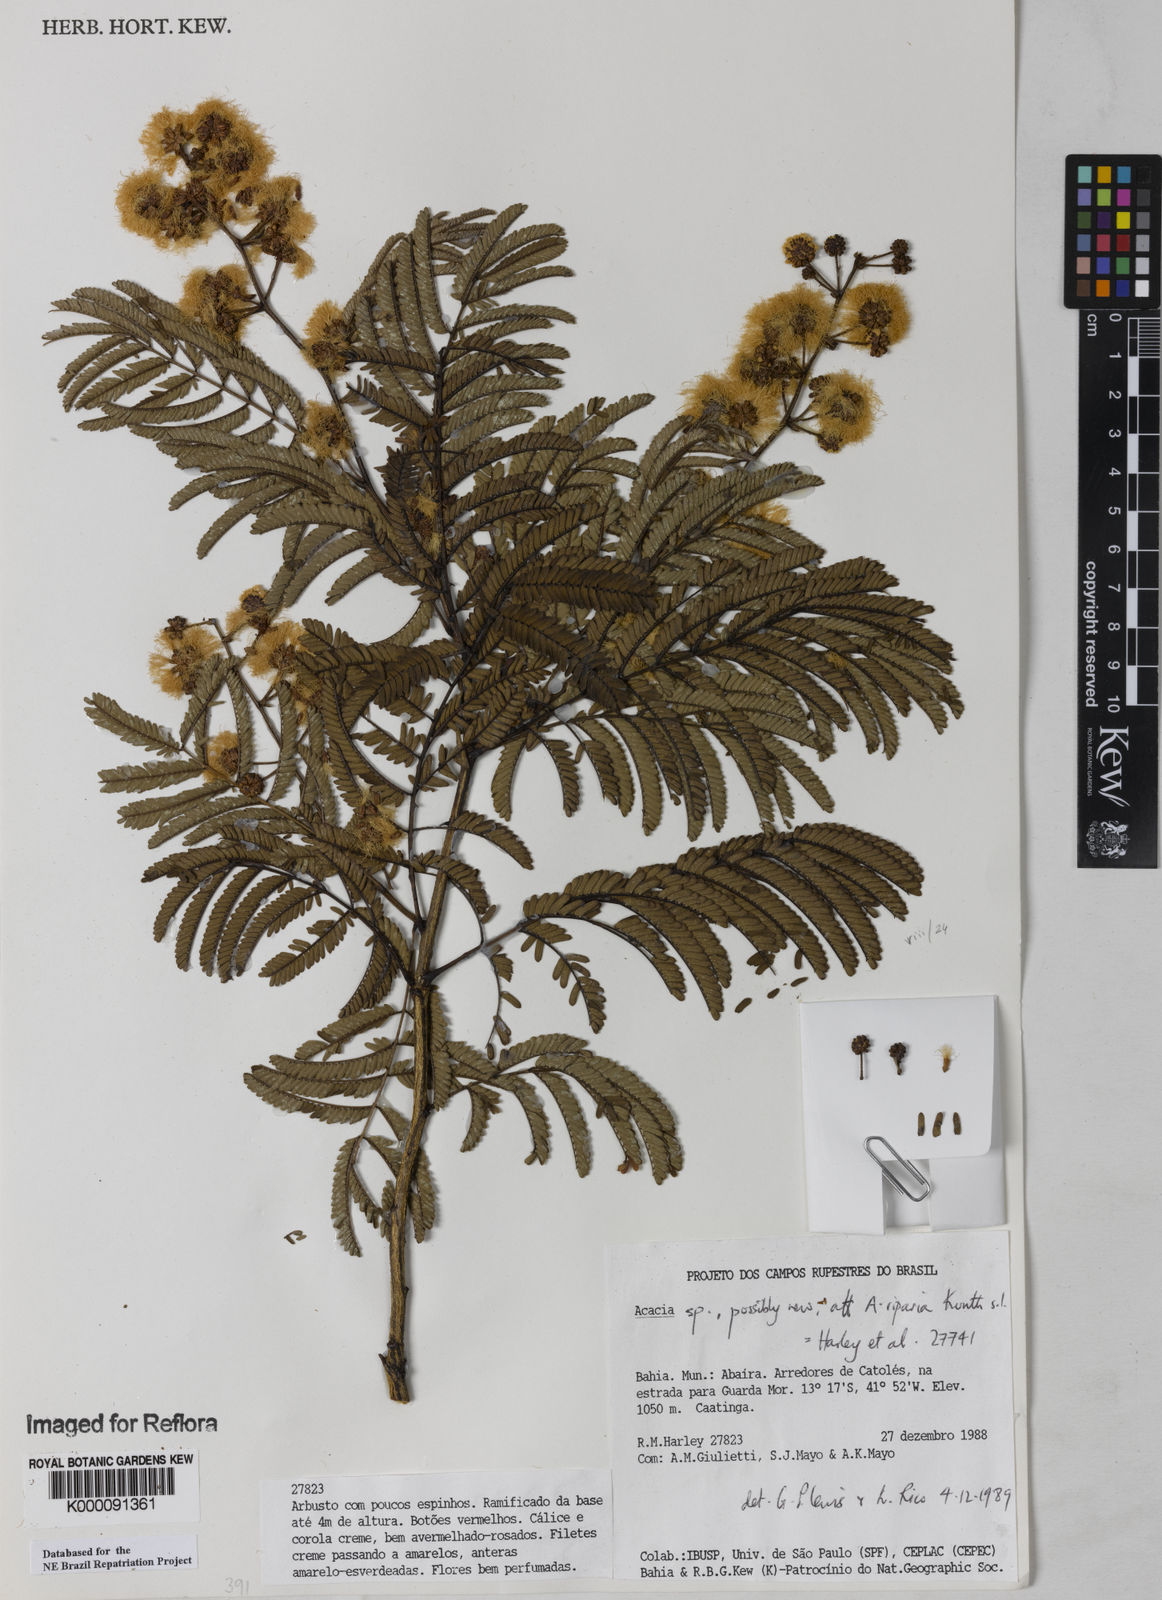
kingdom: Plantae
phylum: Tracheophyta
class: Magnoliopsida
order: Fabales
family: Fabaceae
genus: Senegalia
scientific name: Senegalia riparia
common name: Catch-and-keep
